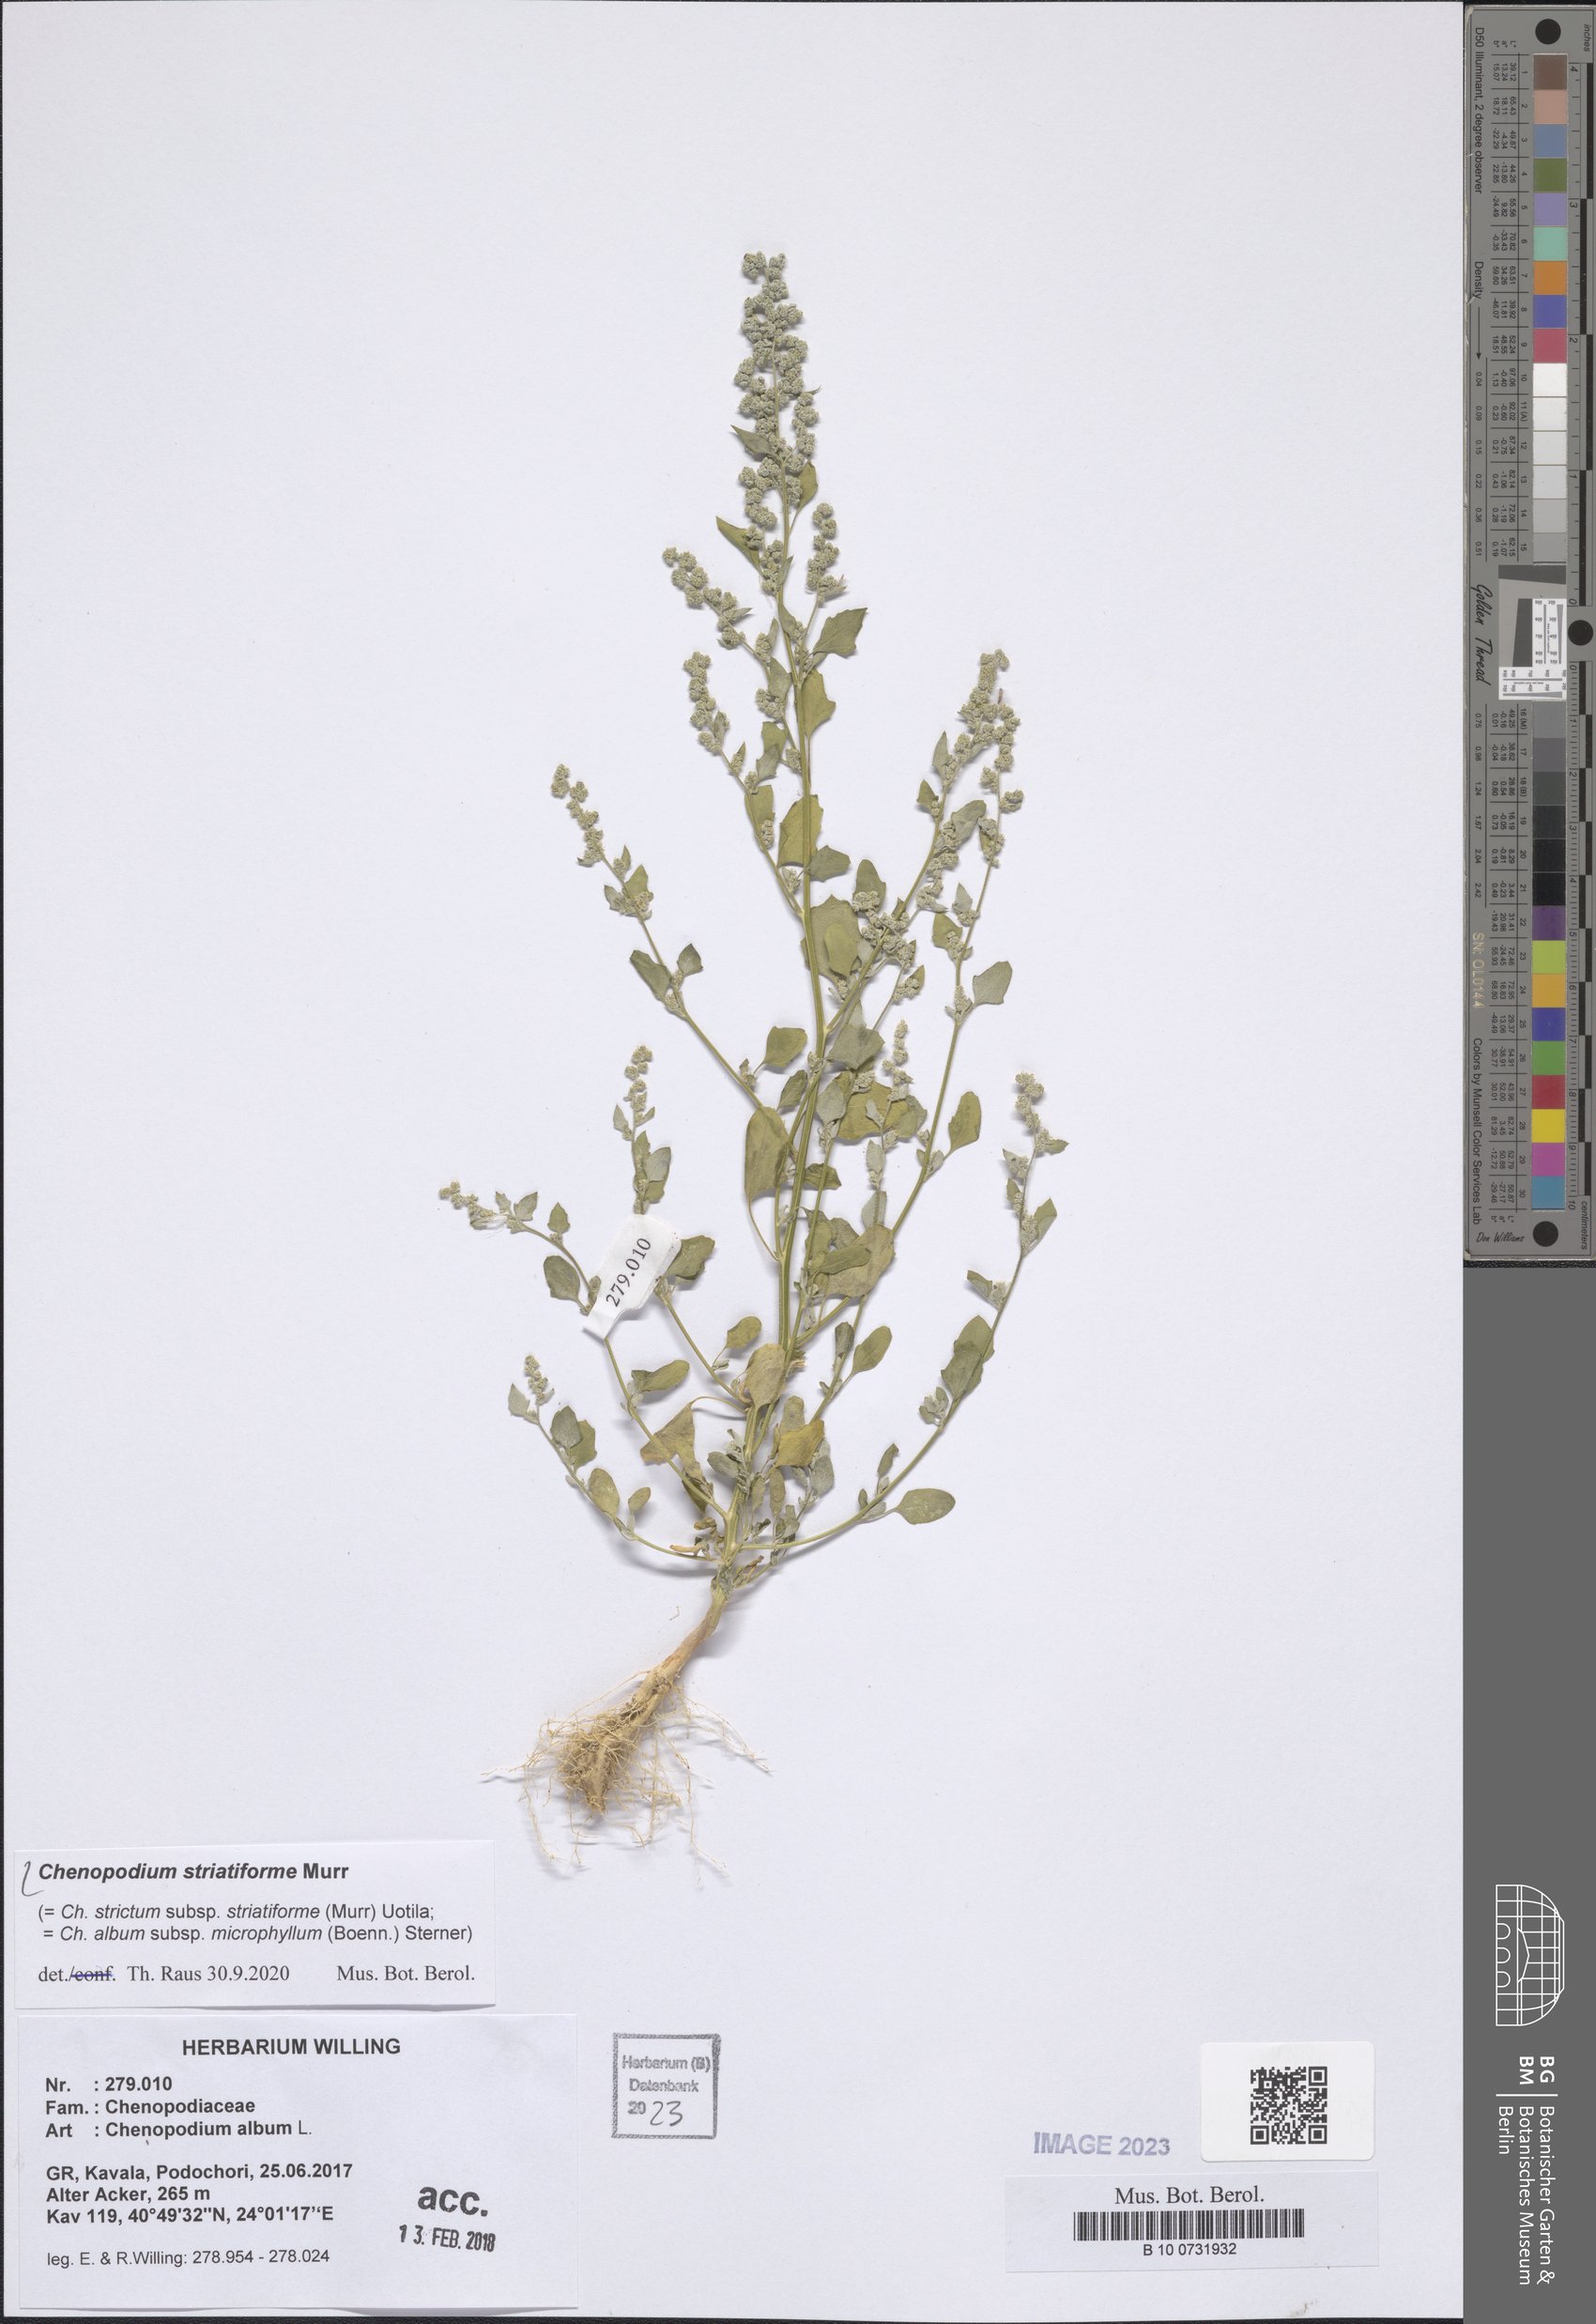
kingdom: Plantae
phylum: Tracheophyta
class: Magnoliopsida
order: Caryophyllales
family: Amaranthaceae
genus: Chenopodium
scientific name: Chenopodium striatiforme
